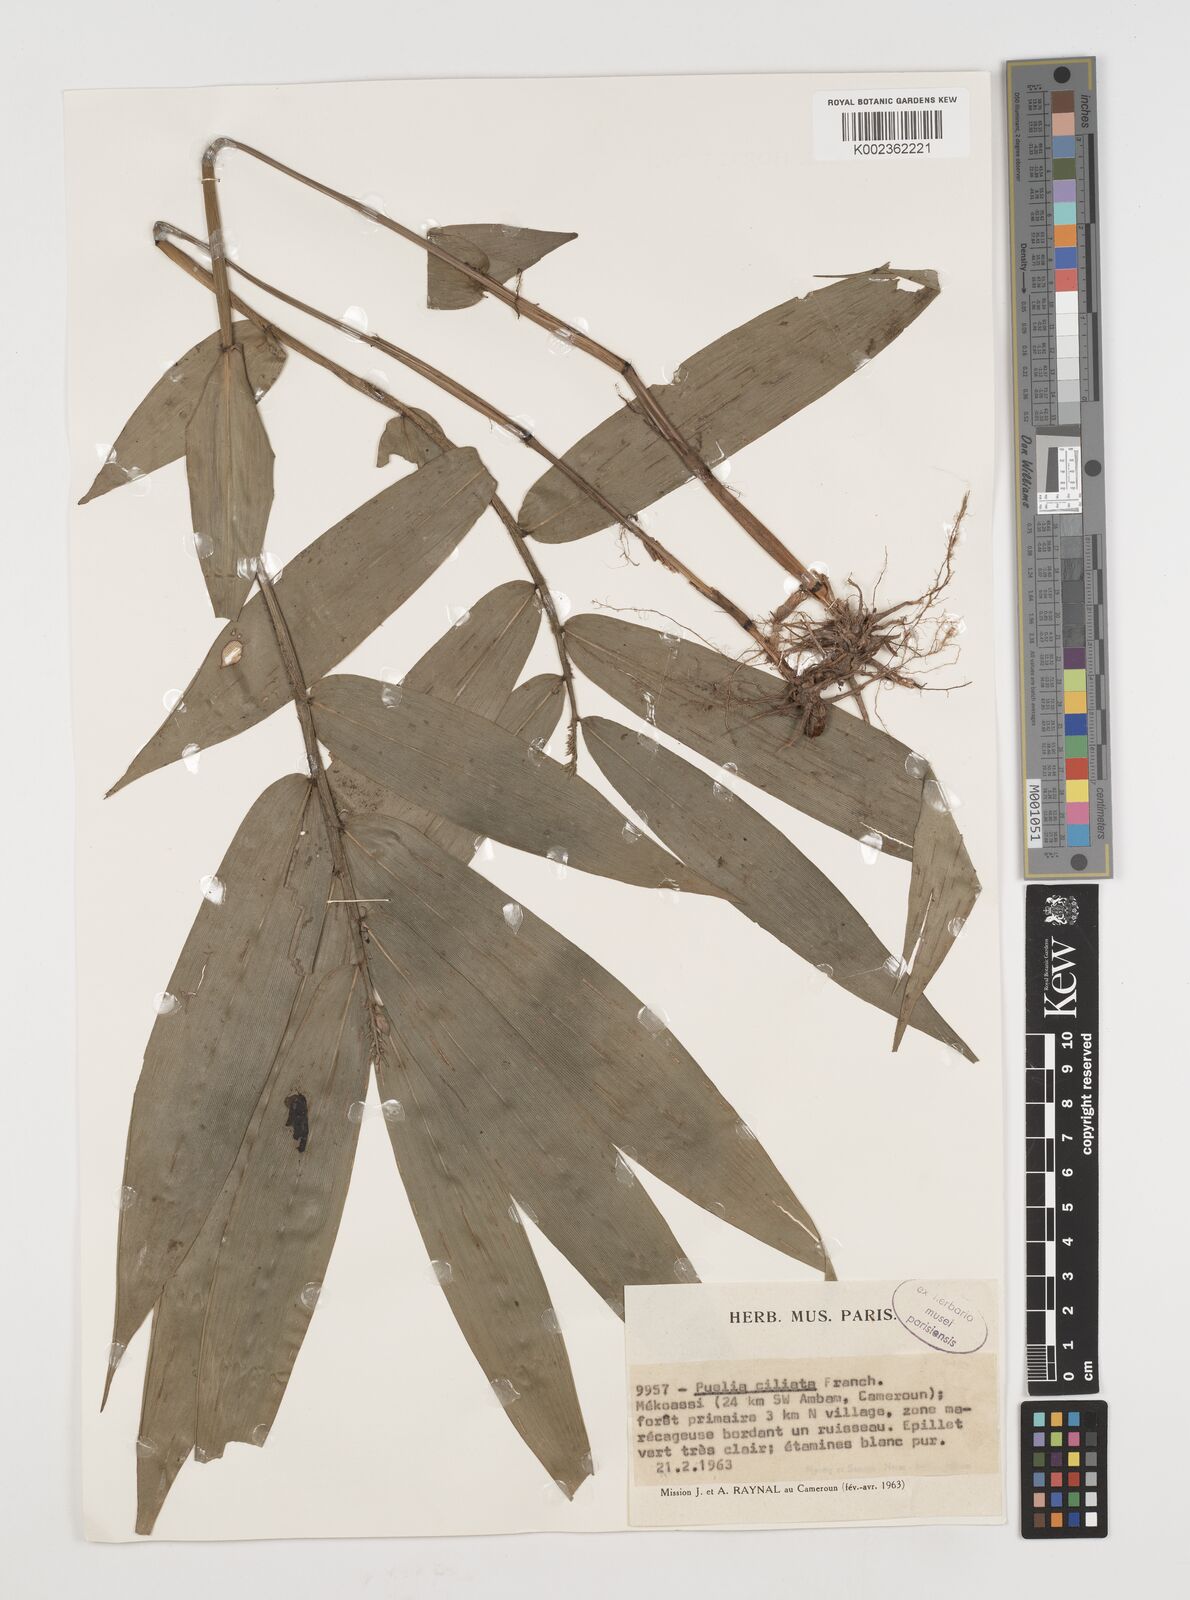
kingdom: Plantae
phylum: Tracheophyta
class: Liliopsida
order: Poales
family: Poaceae
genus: Puelia
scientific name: Puelia ciliata
